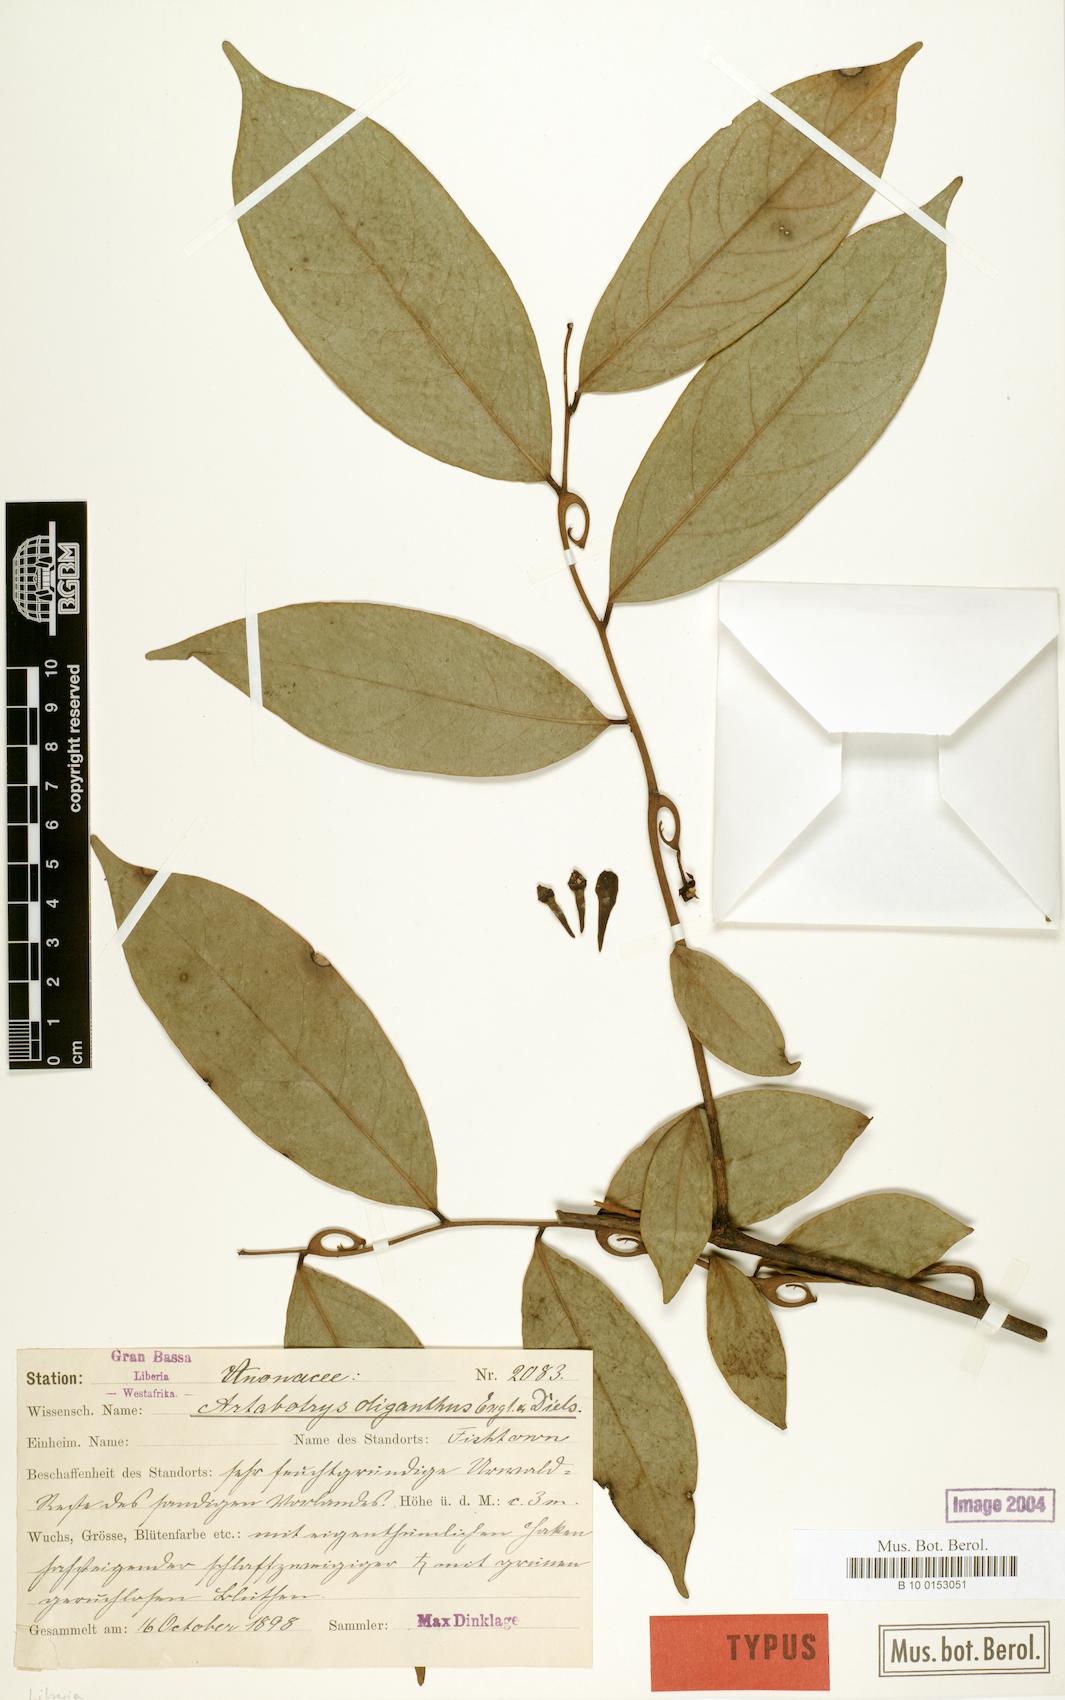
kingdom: Plantae
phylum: Tracheophyta
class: Magnoliopsida
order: Magnoliales
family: Annonaceae
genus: Artabotrys
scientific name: Artabotrys oliganthus
